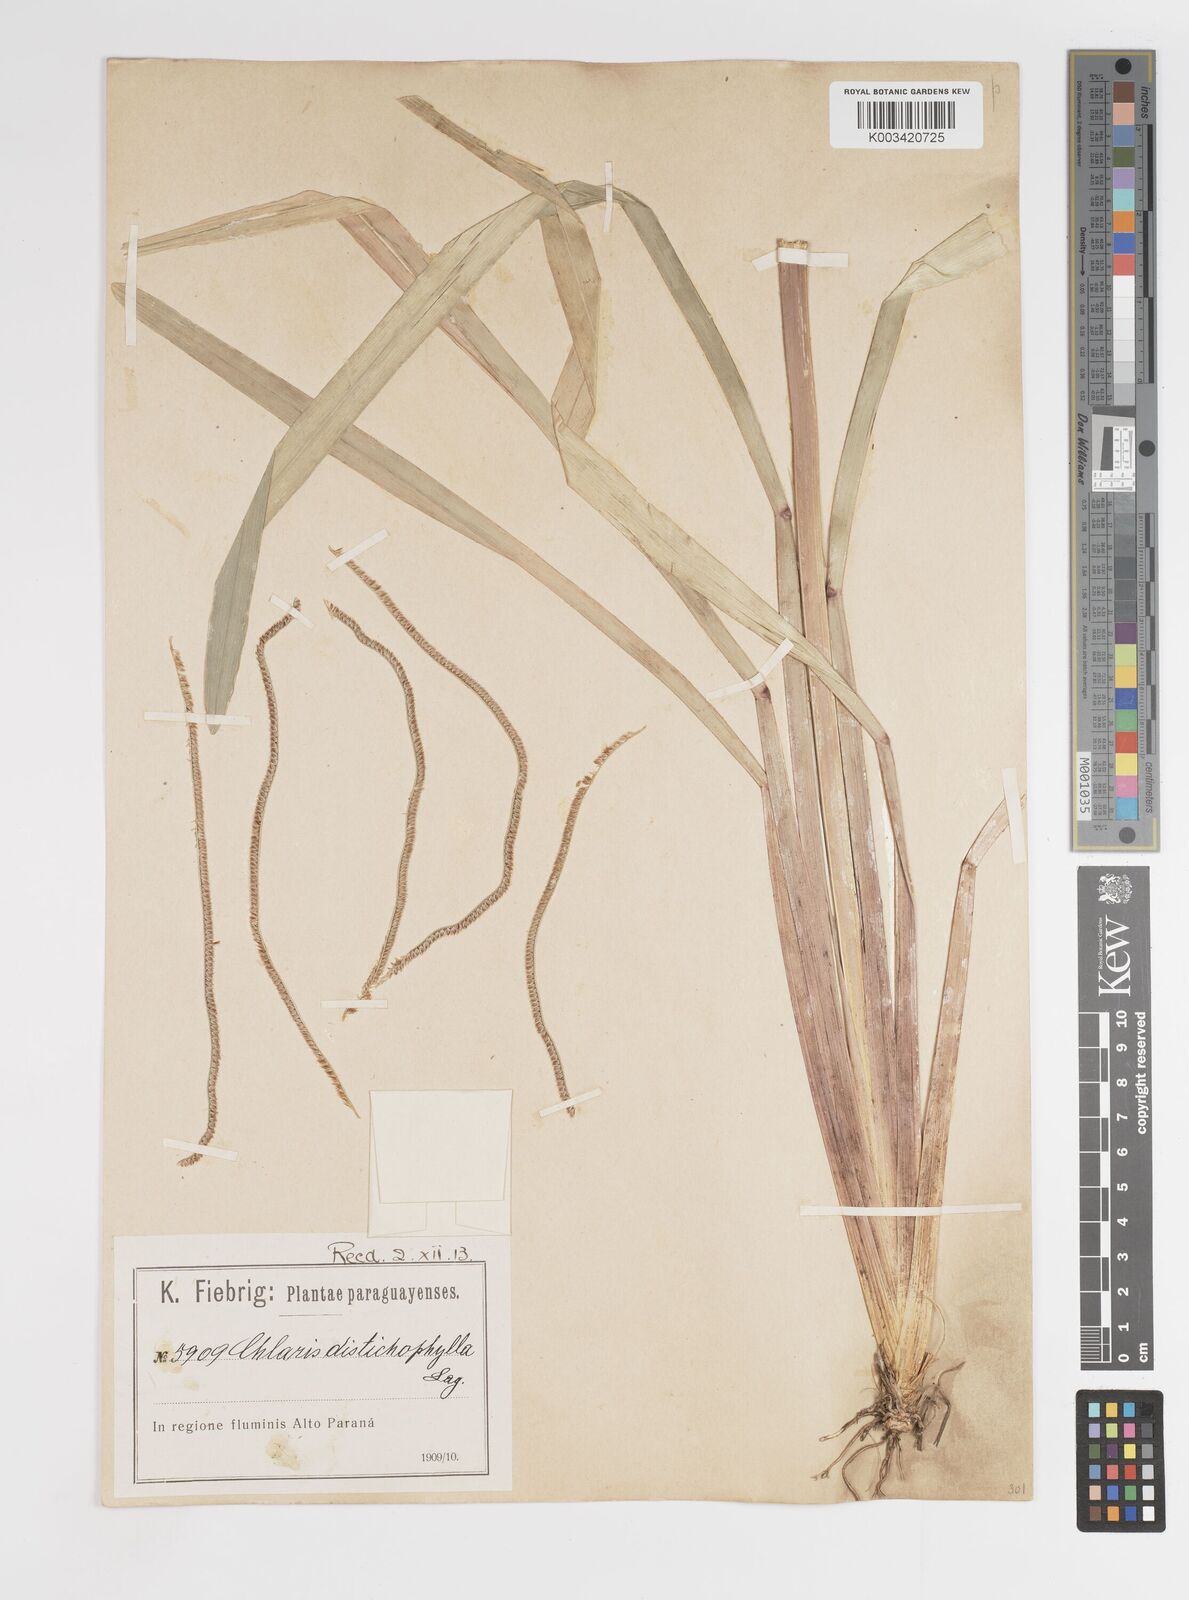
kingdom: Plantae
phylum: Tracheophyta
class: Liliopsida
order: Poales
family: Poaceae
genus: Eustachys
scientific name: Eustachys distichophylla
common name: Weeping fingergrass
